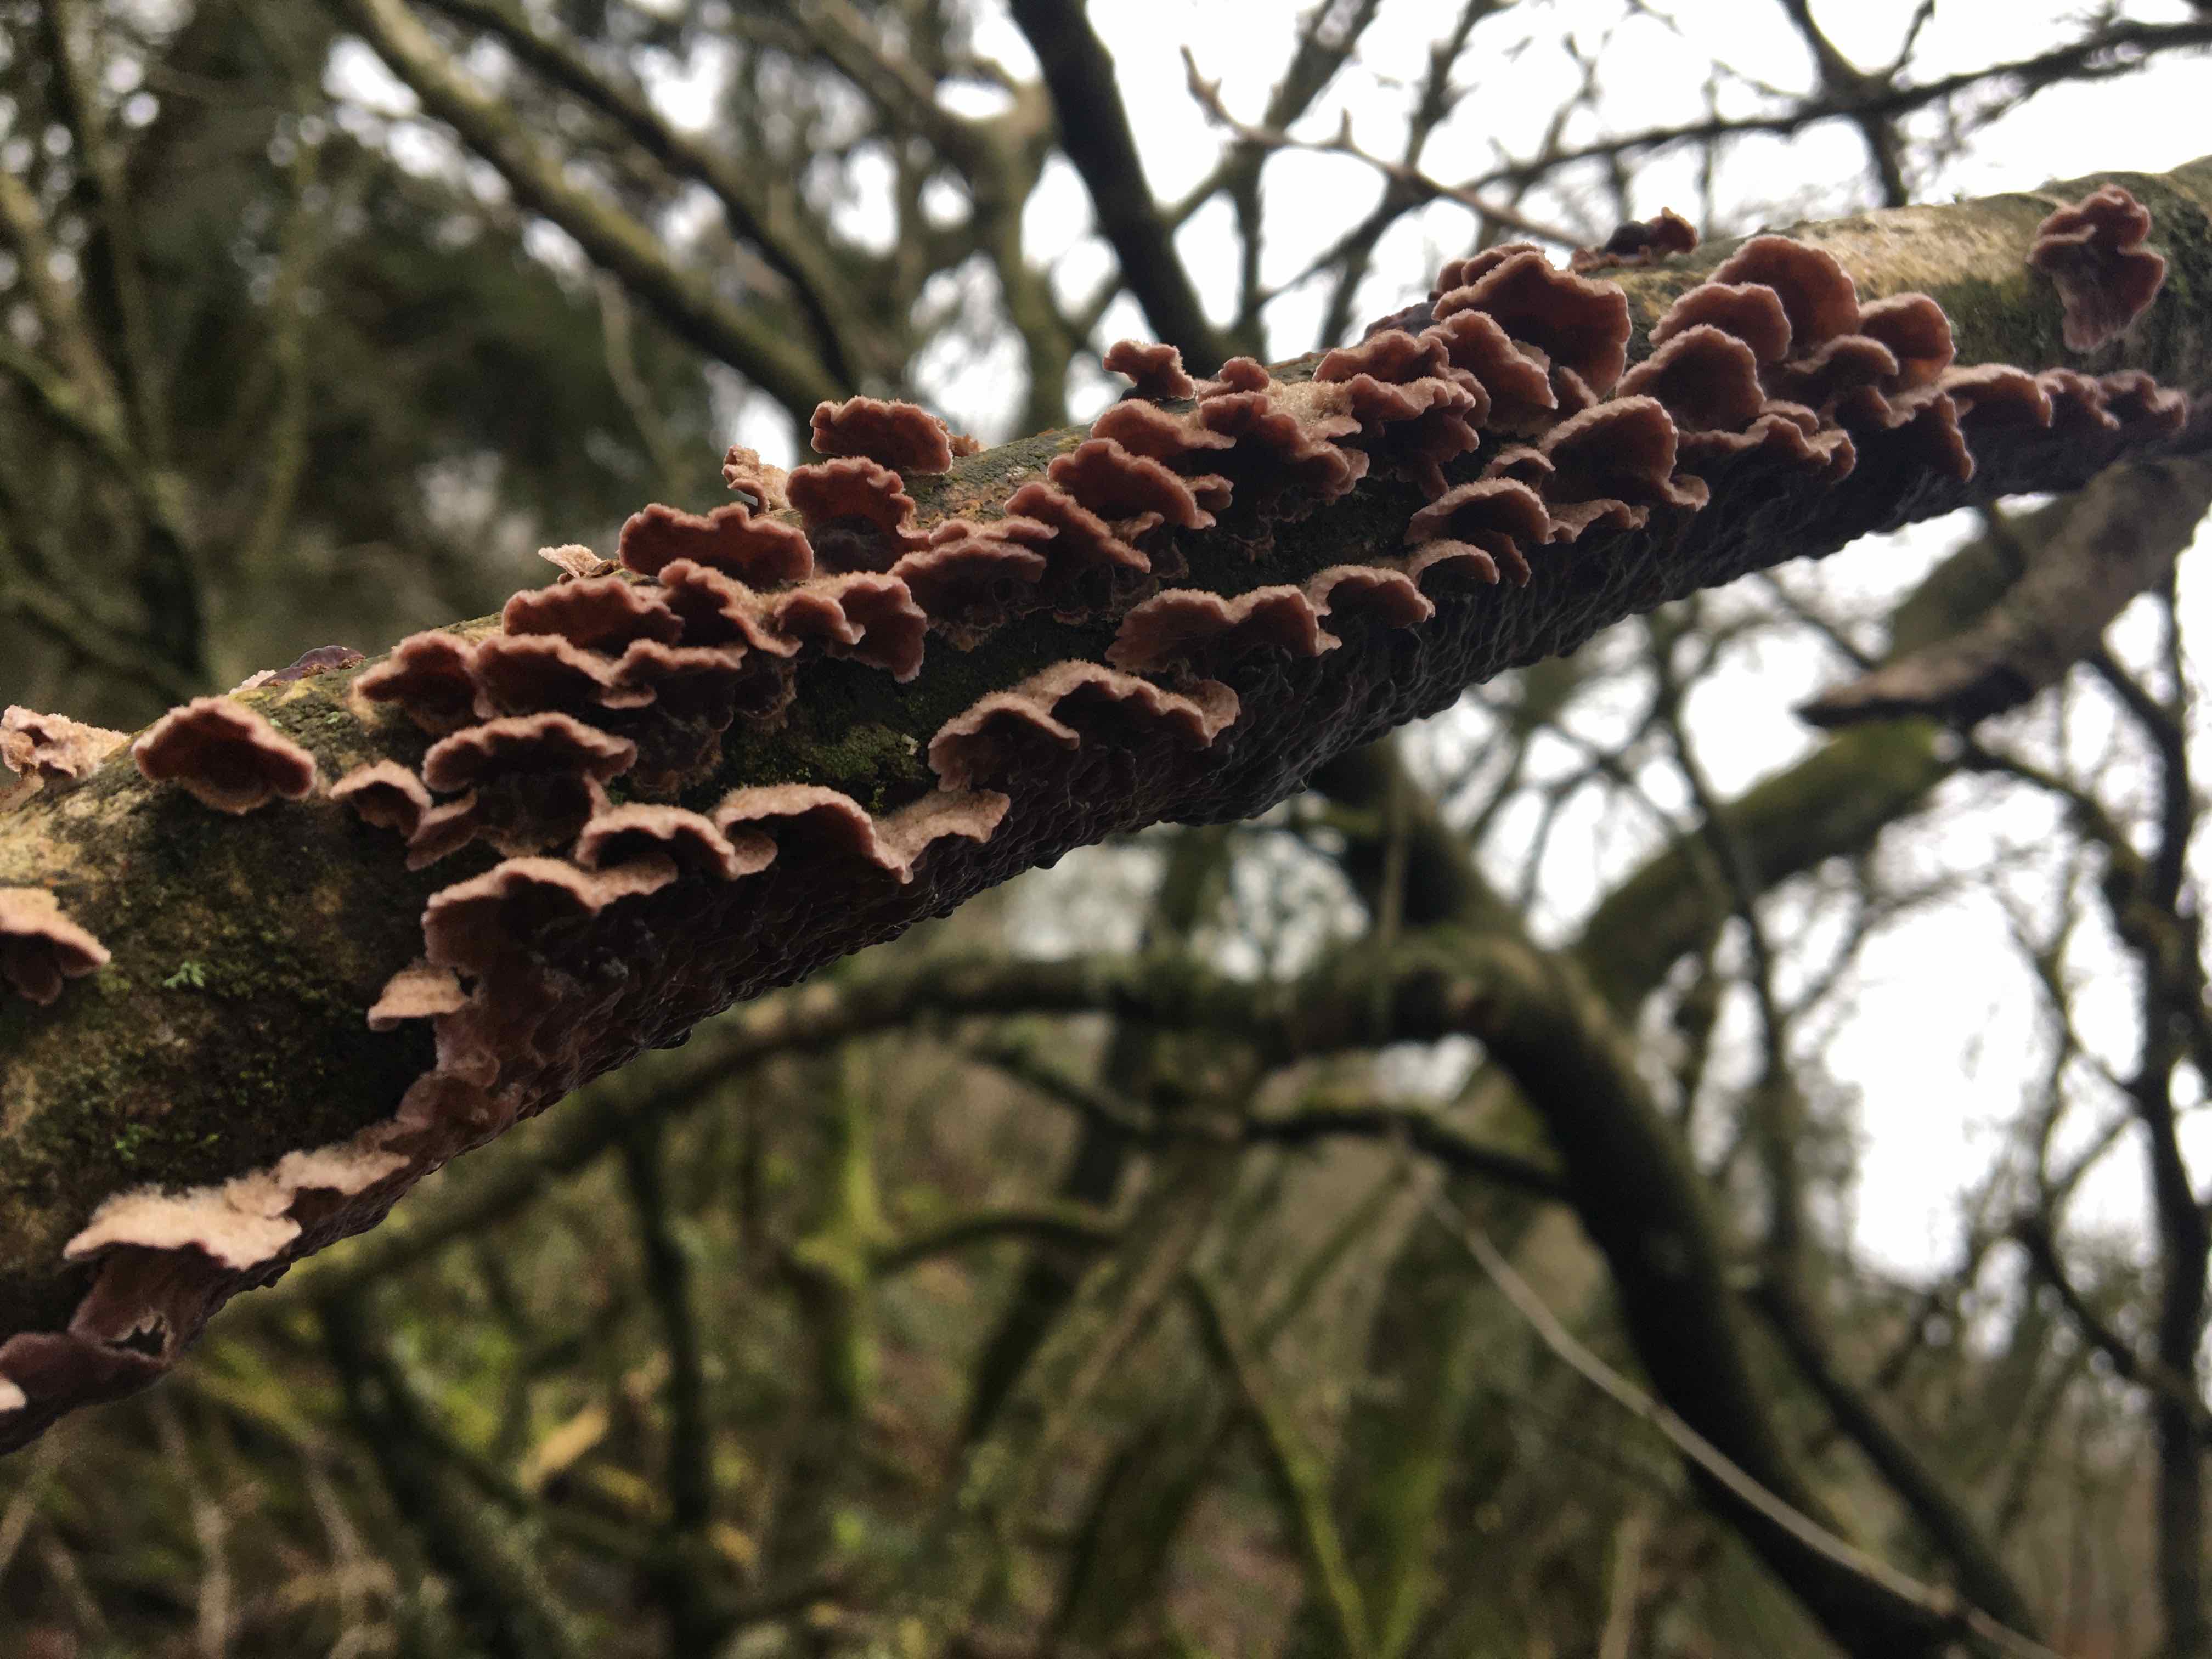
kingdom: Fungi
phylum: Basidiomycota
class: Agaricomycetes
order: Agaricales
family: Cyphellaceae
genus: Chondrostereum
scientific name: Chondrostereum purpureum
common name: purpurlædersvamp
